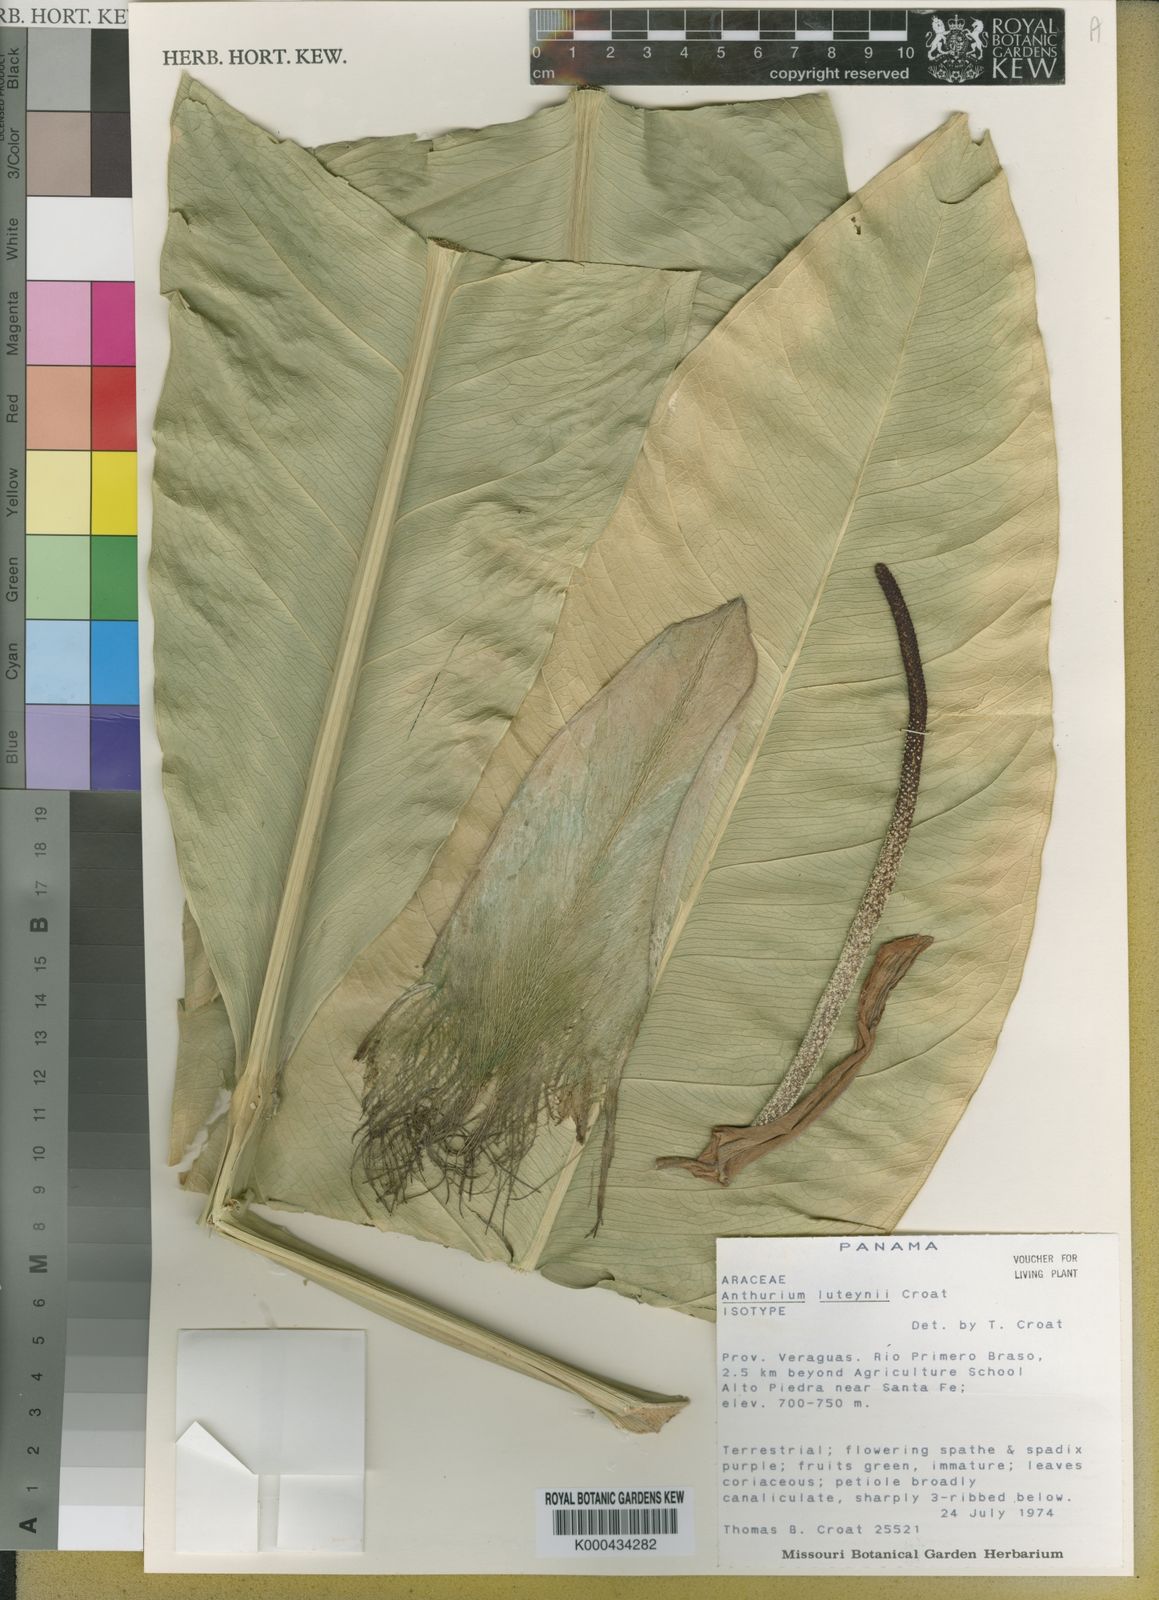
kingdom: Plantae
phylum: Tracheophyta
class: Liliopsida
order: Alismatales
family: Araceae
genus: Anthurium
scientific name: Anthurium luteynii
